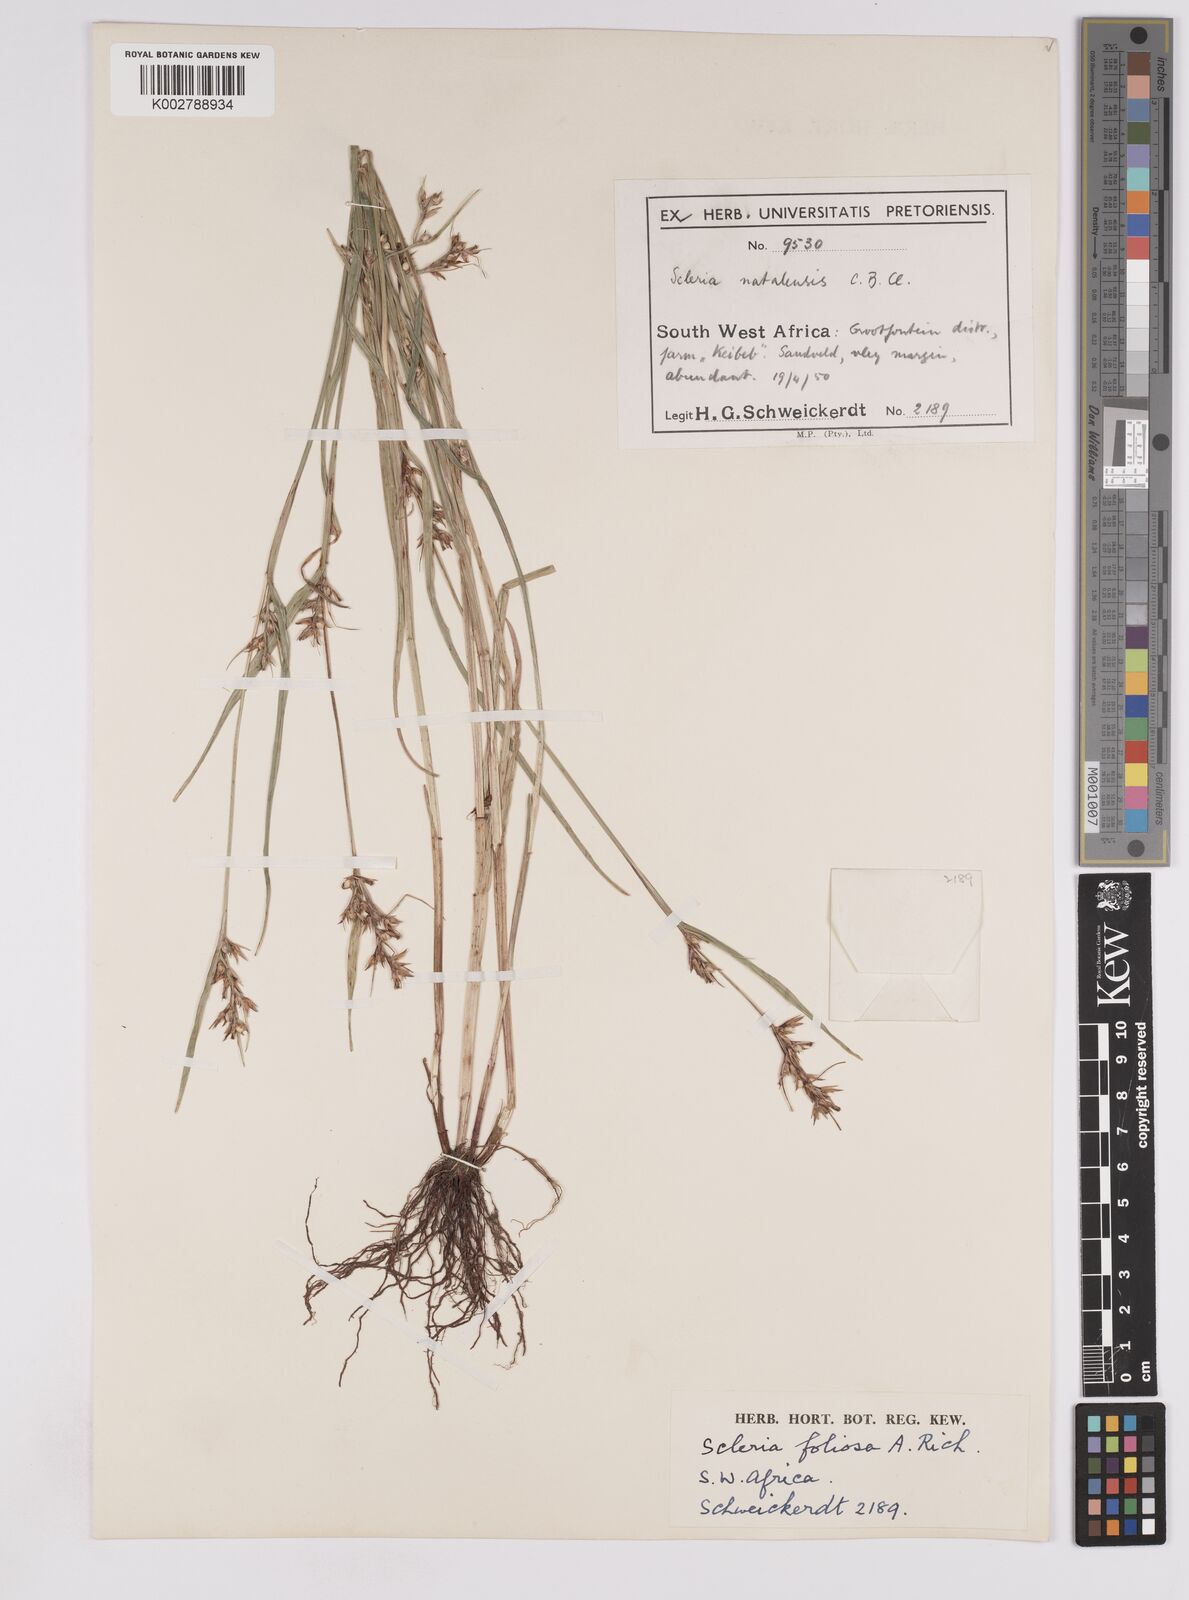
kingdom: Plantae
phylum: Tracheophyta
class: Liliopsida
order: Poales
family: Cyperaceae
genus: Scleria
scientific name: Scleria foliosa
